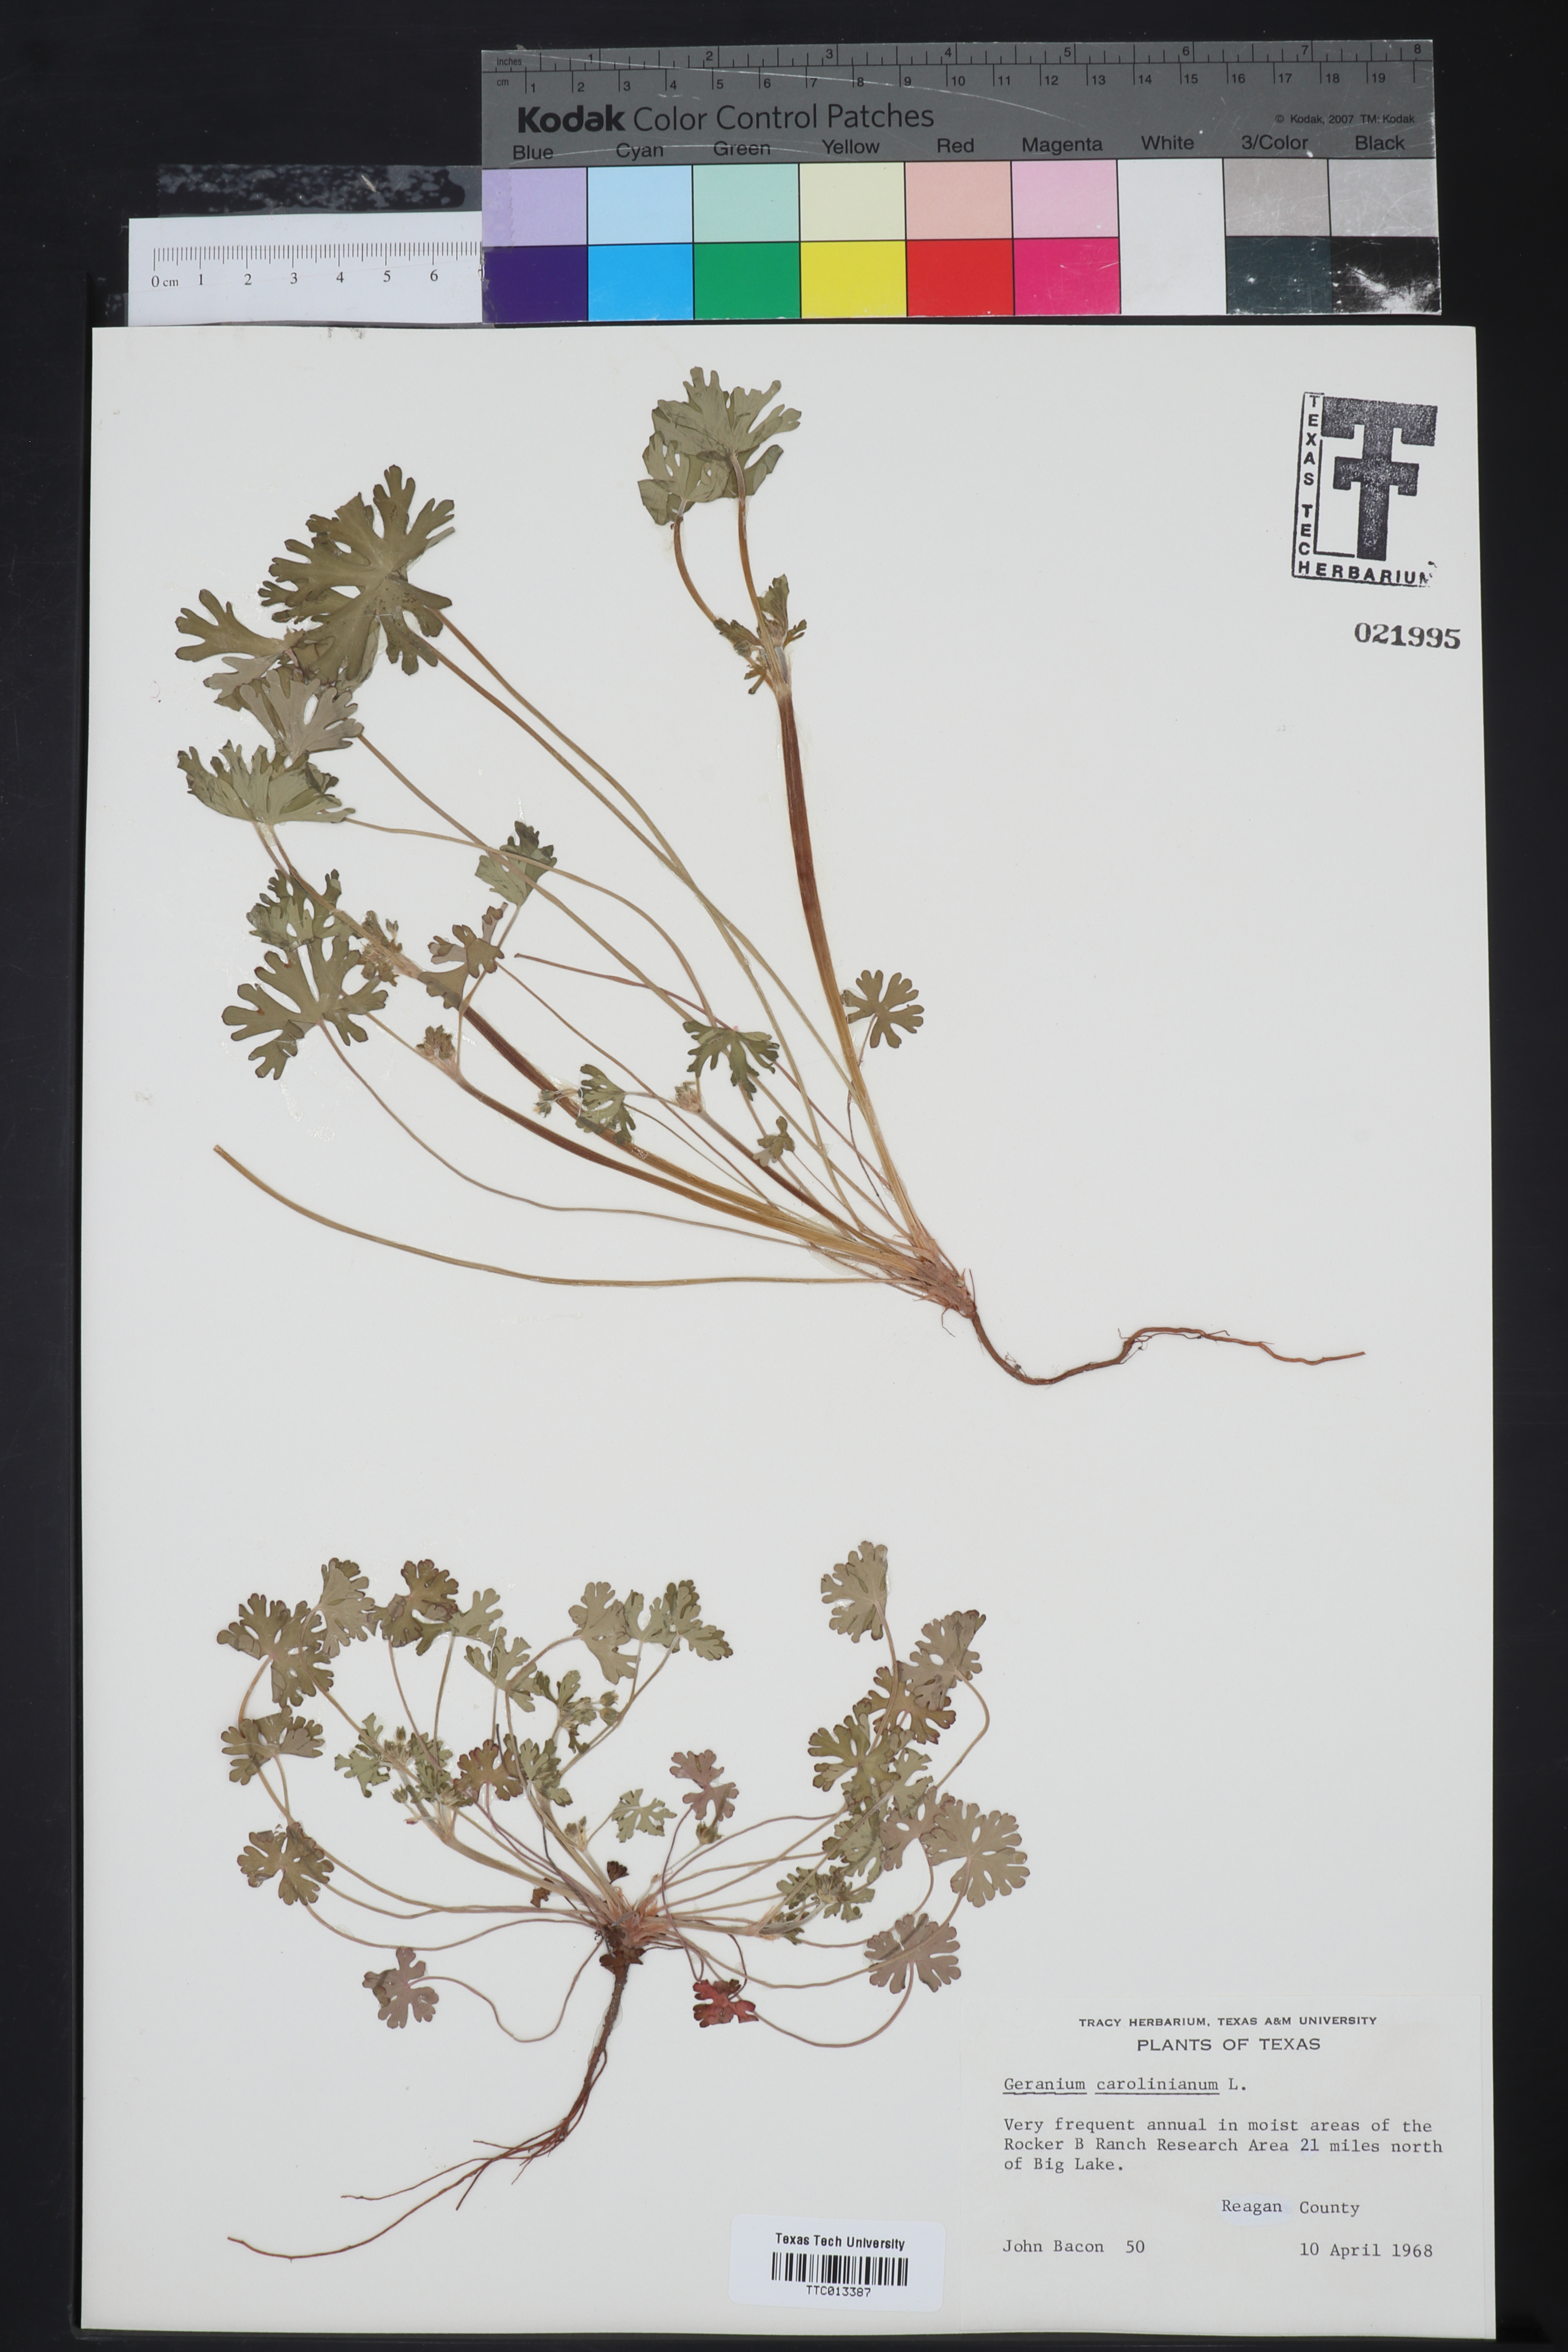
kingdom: Plantae
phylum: Tracheophyta
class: Magnoliopsida
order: Geraniales
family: Geraniaceae
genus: Geranium
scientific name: Geranium carolinianum
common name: Carolina crane's-bill
